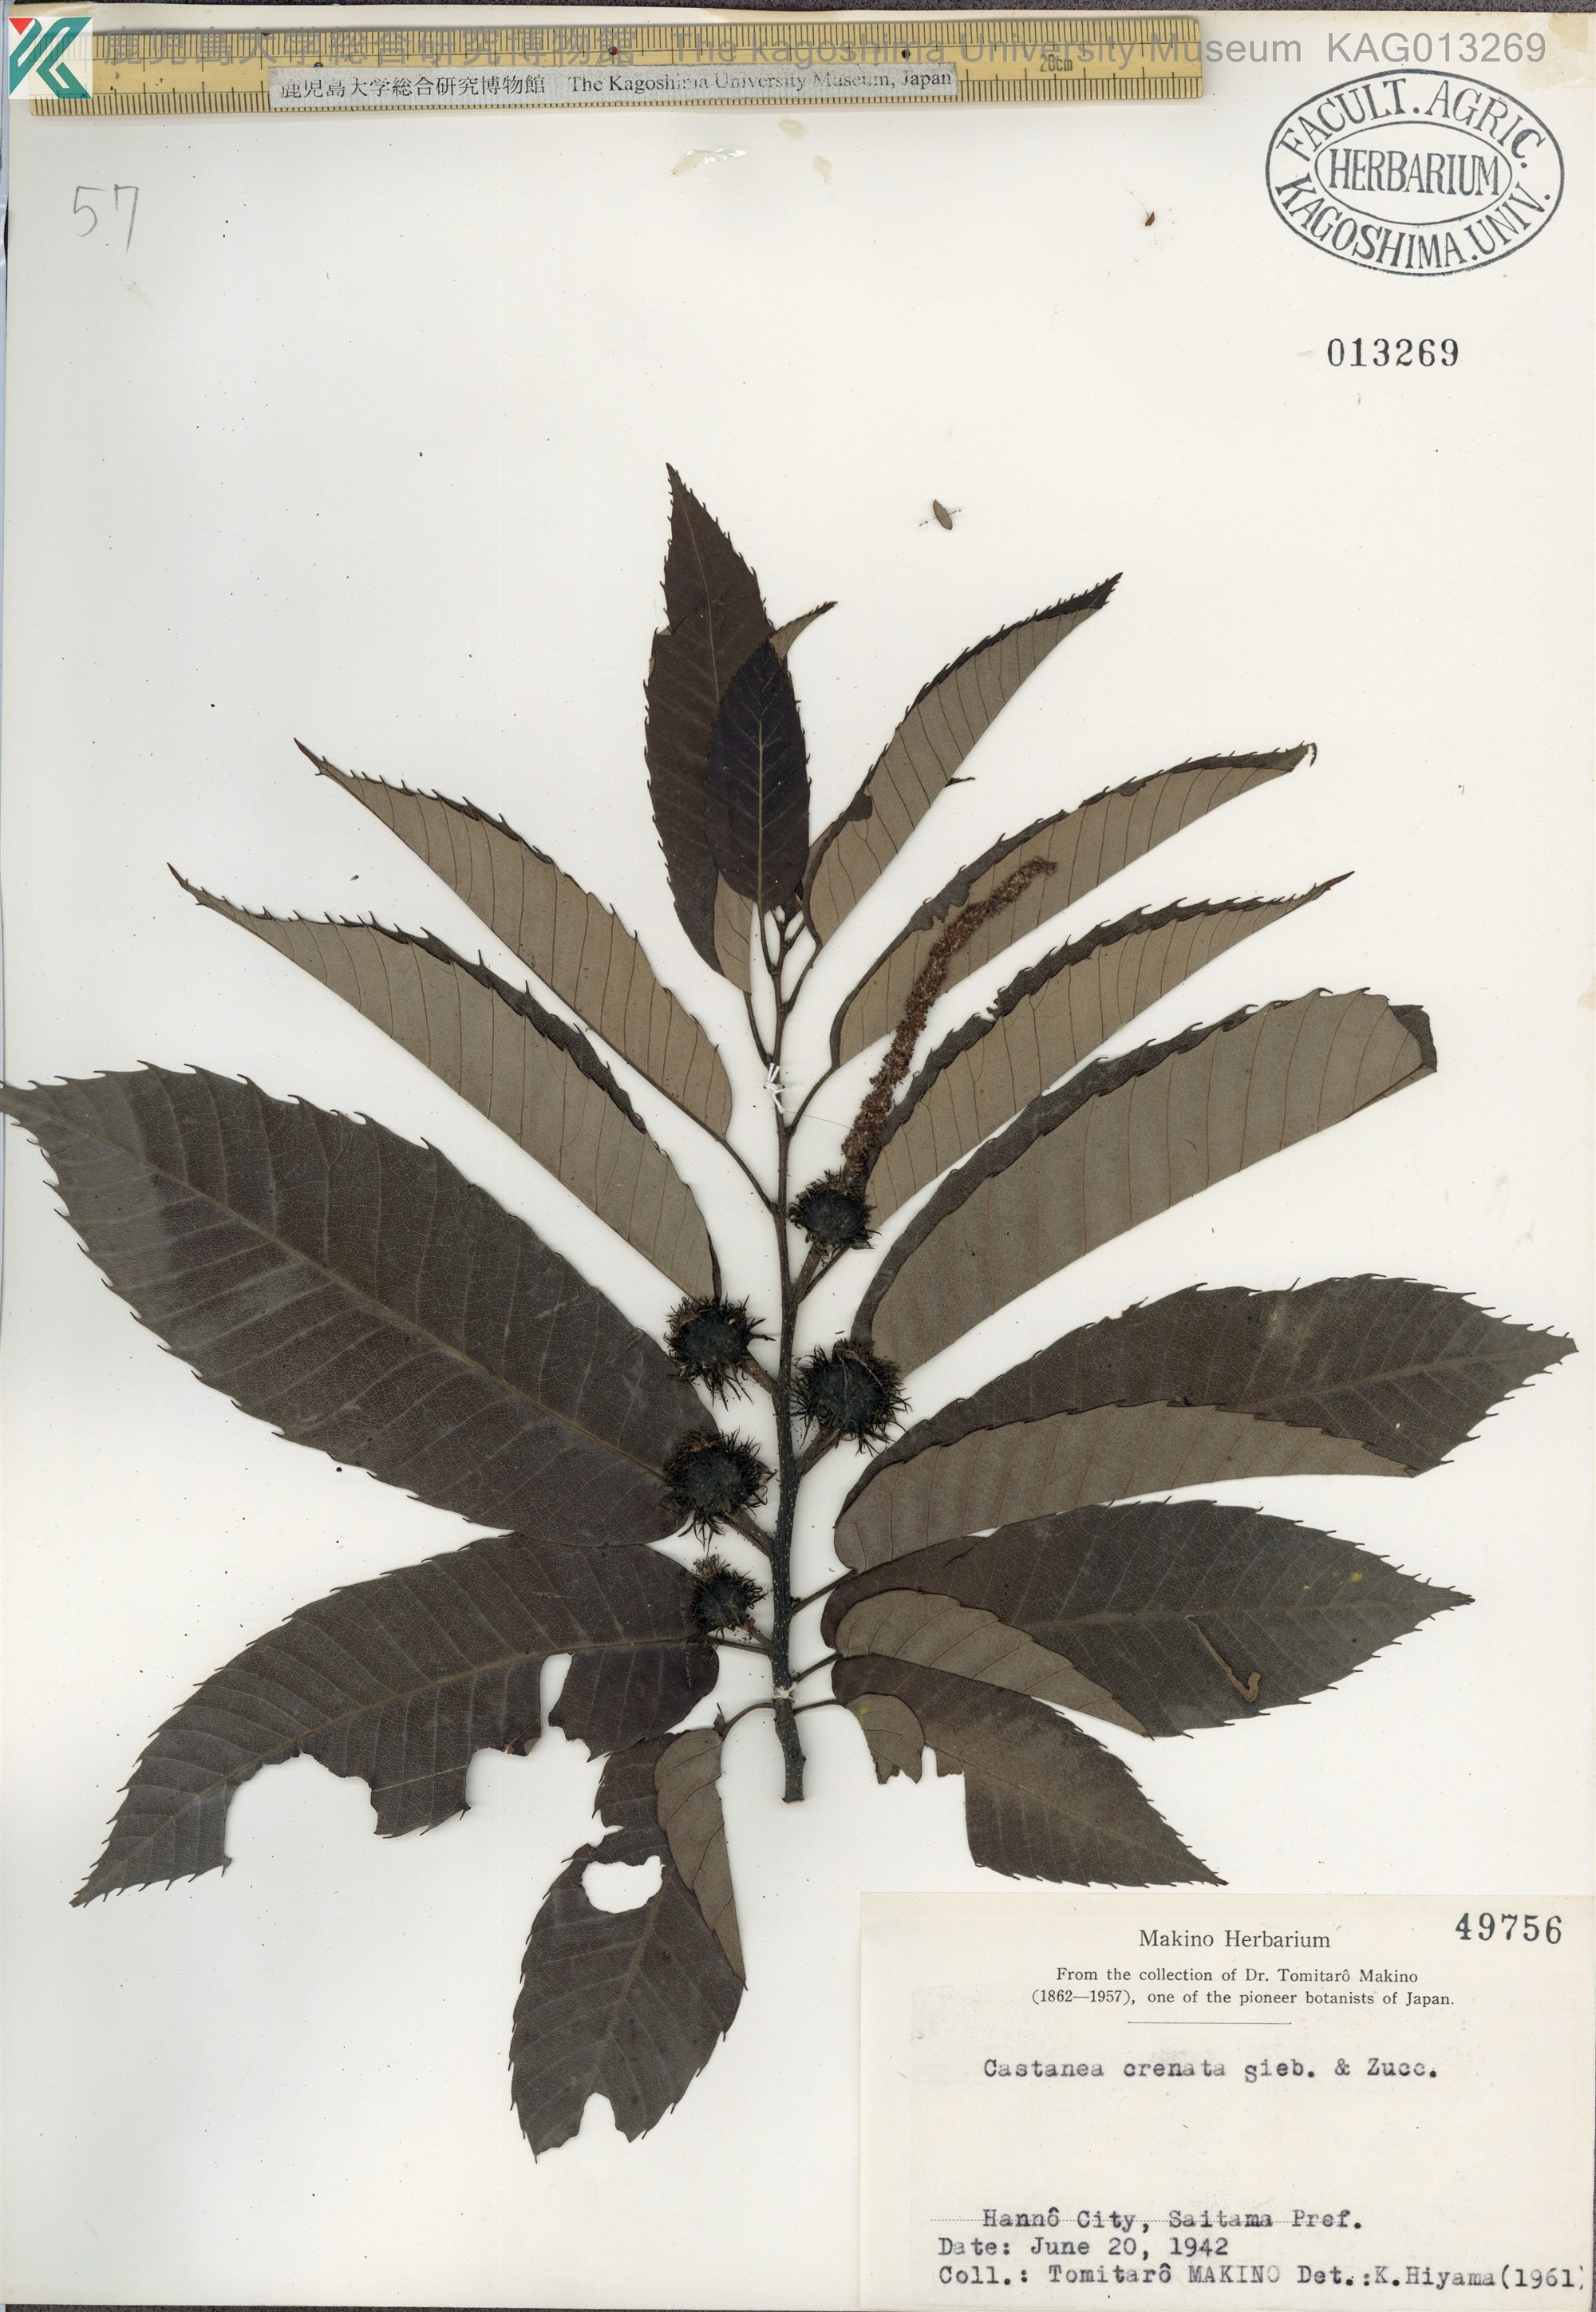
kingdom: Plantae
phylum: Tracheophyta
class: Magnoliopsida
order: Fagales
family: Fagaceae
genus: Castanea
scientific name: Castanea crenata
